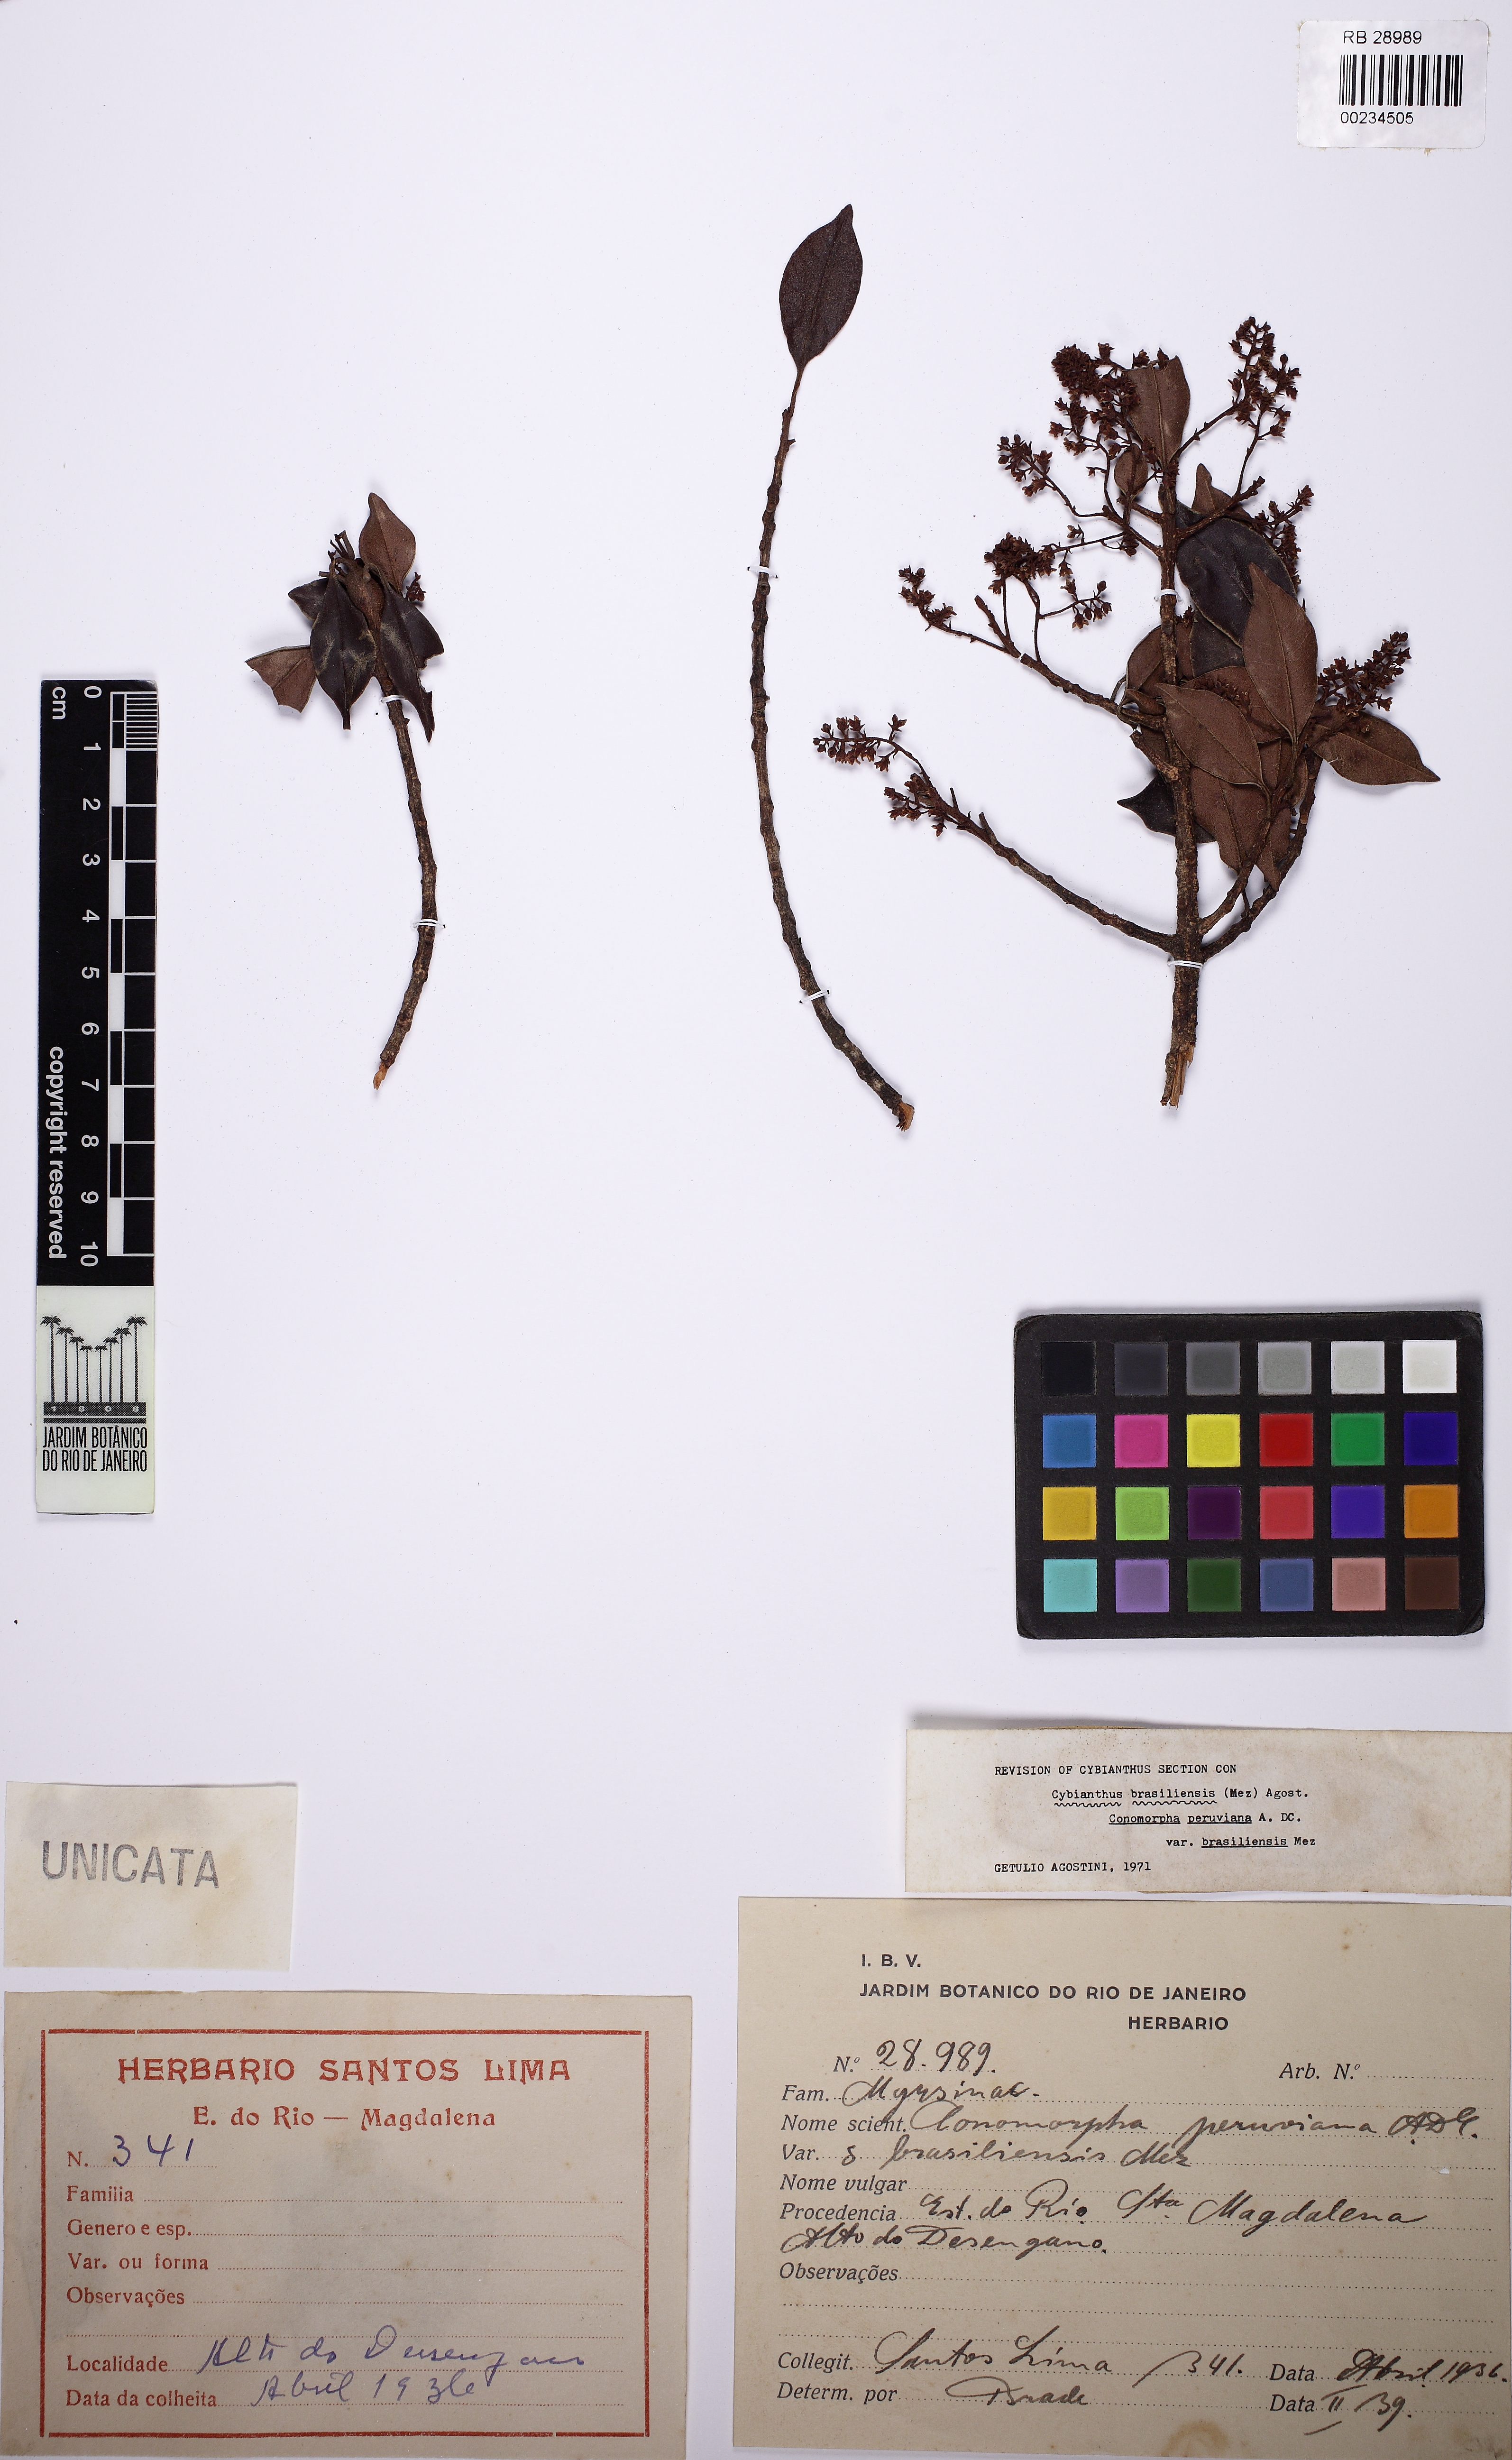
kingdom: Plantae
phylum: Tracheophyta
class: Magnoliopsida
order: Ericales
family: Primulaceae
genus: Cybianthus
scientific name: Cybianthus peruvianus
